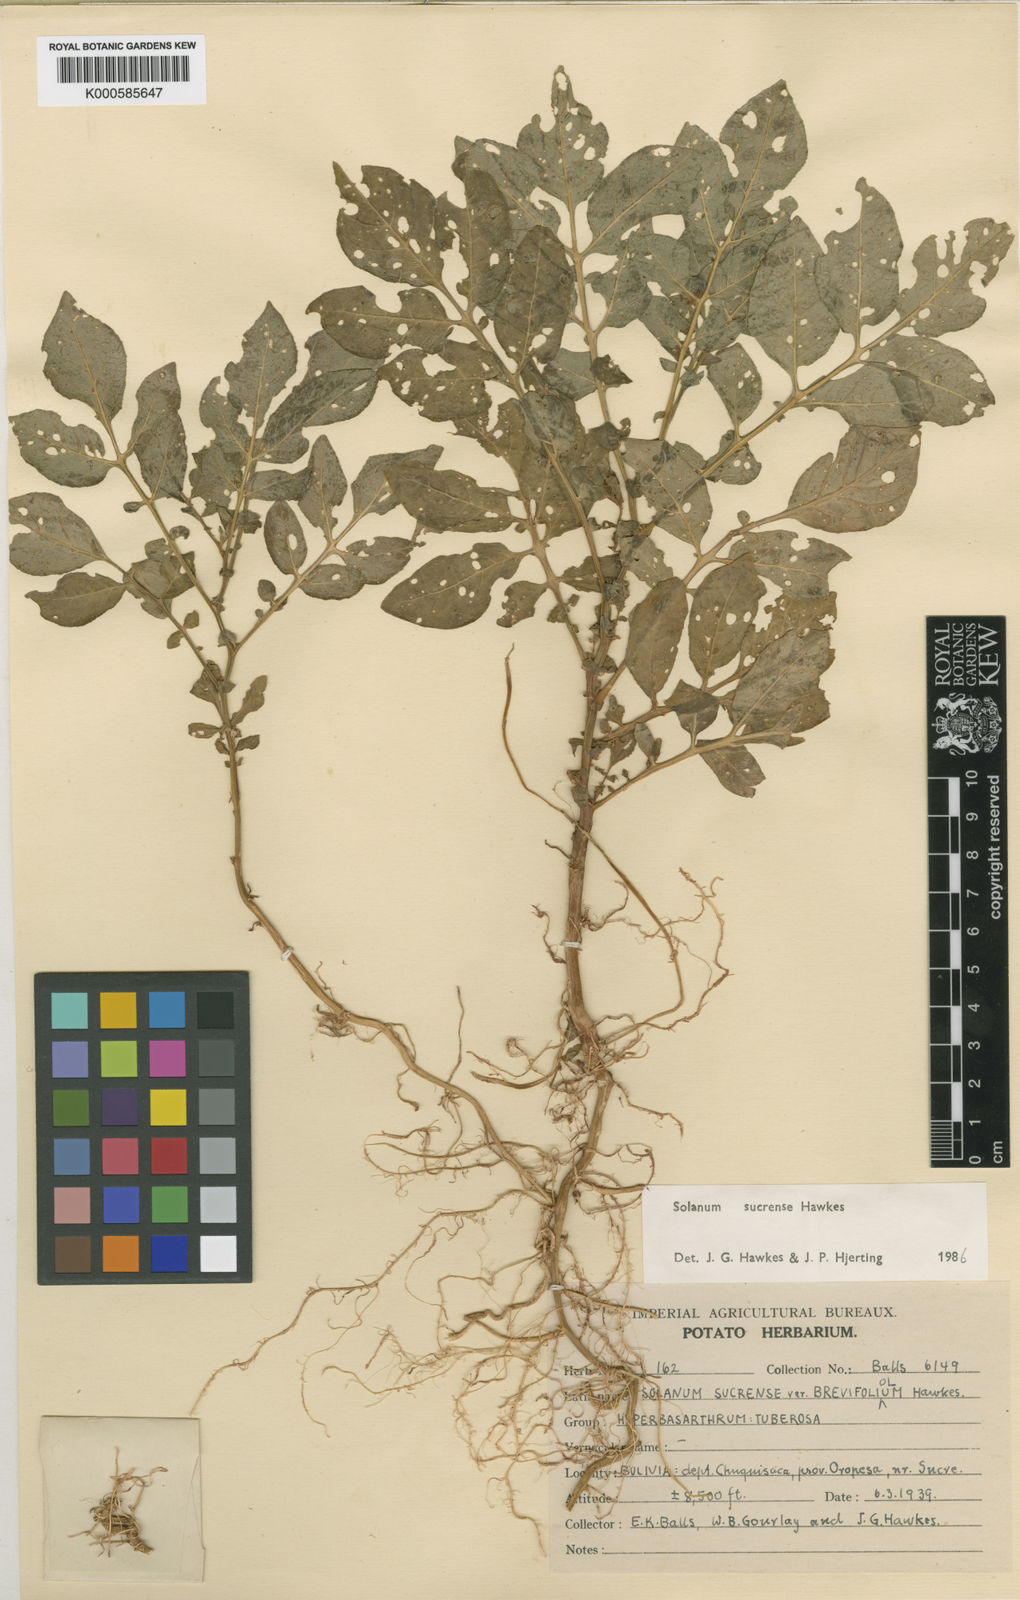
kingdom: Plantae
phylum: Tracheophyta
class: Magnoliopsida
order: Solanales
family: Solanaceae
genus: Solanum
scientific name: Solanum brevicaule
